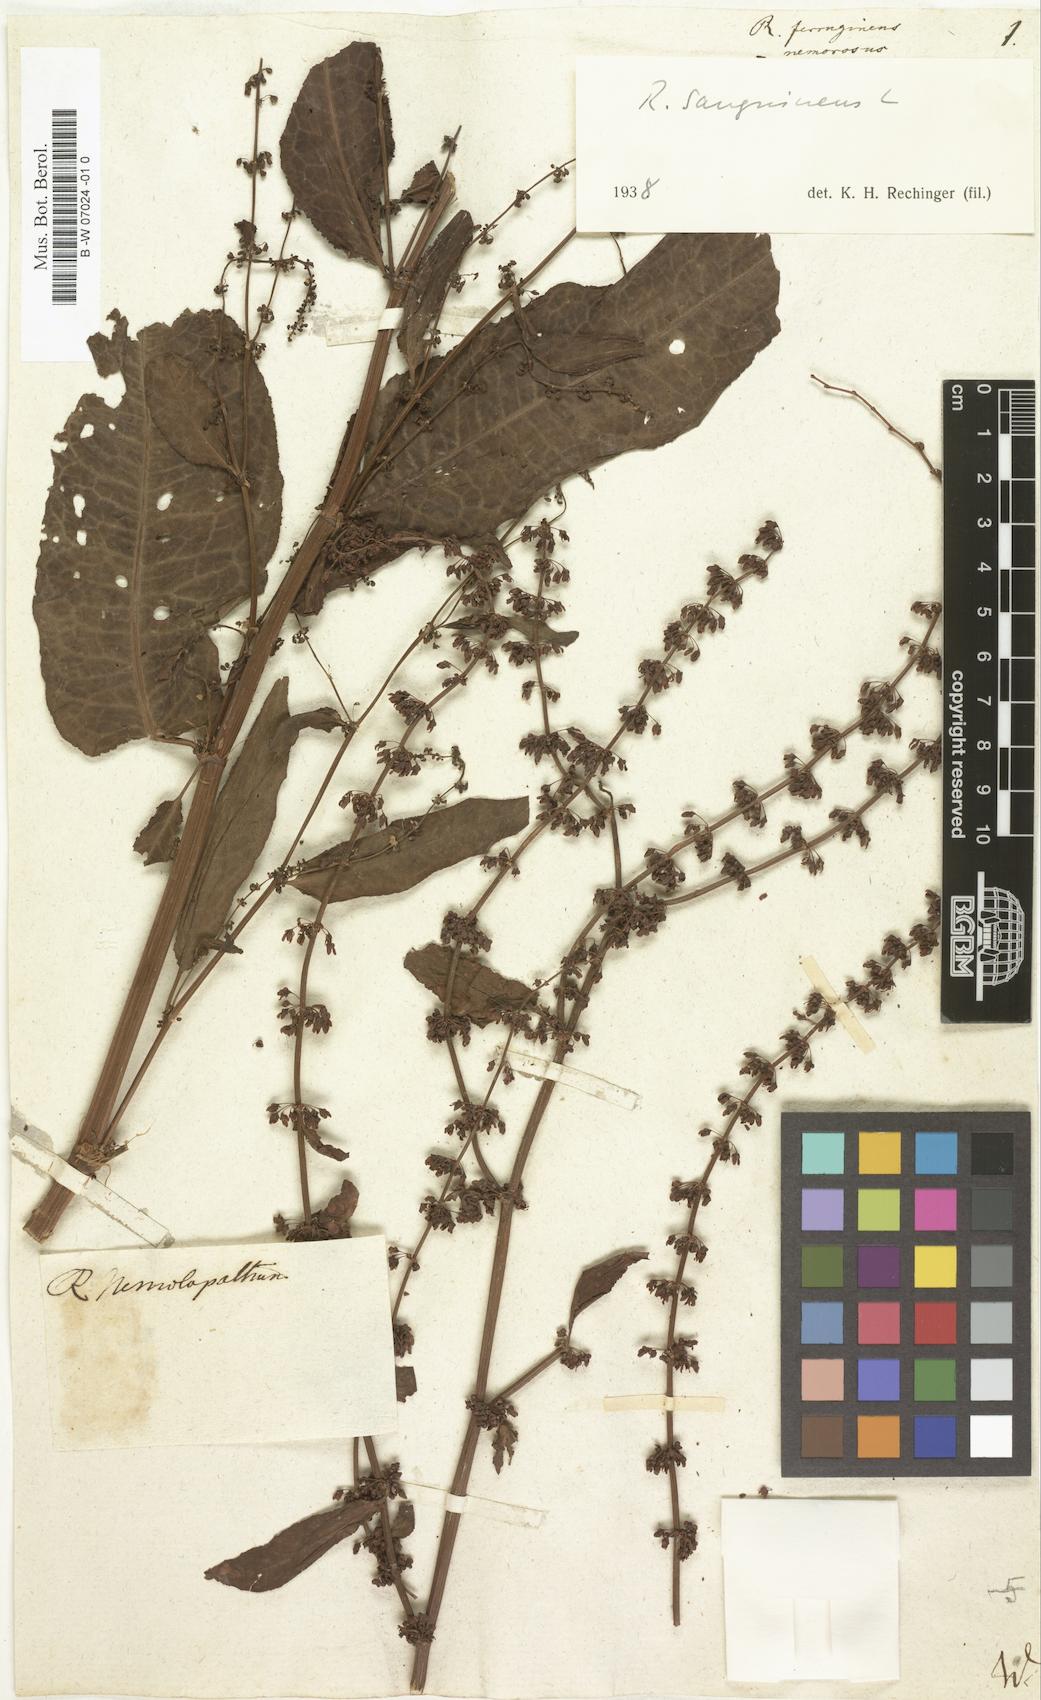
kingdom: Plantae
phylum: Tracheophyta
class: Magnoliopsida
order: Caryophyllales
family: Polygonaceae
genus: Rumex
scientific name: Rumex conglomeratus
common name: Clustered dock
